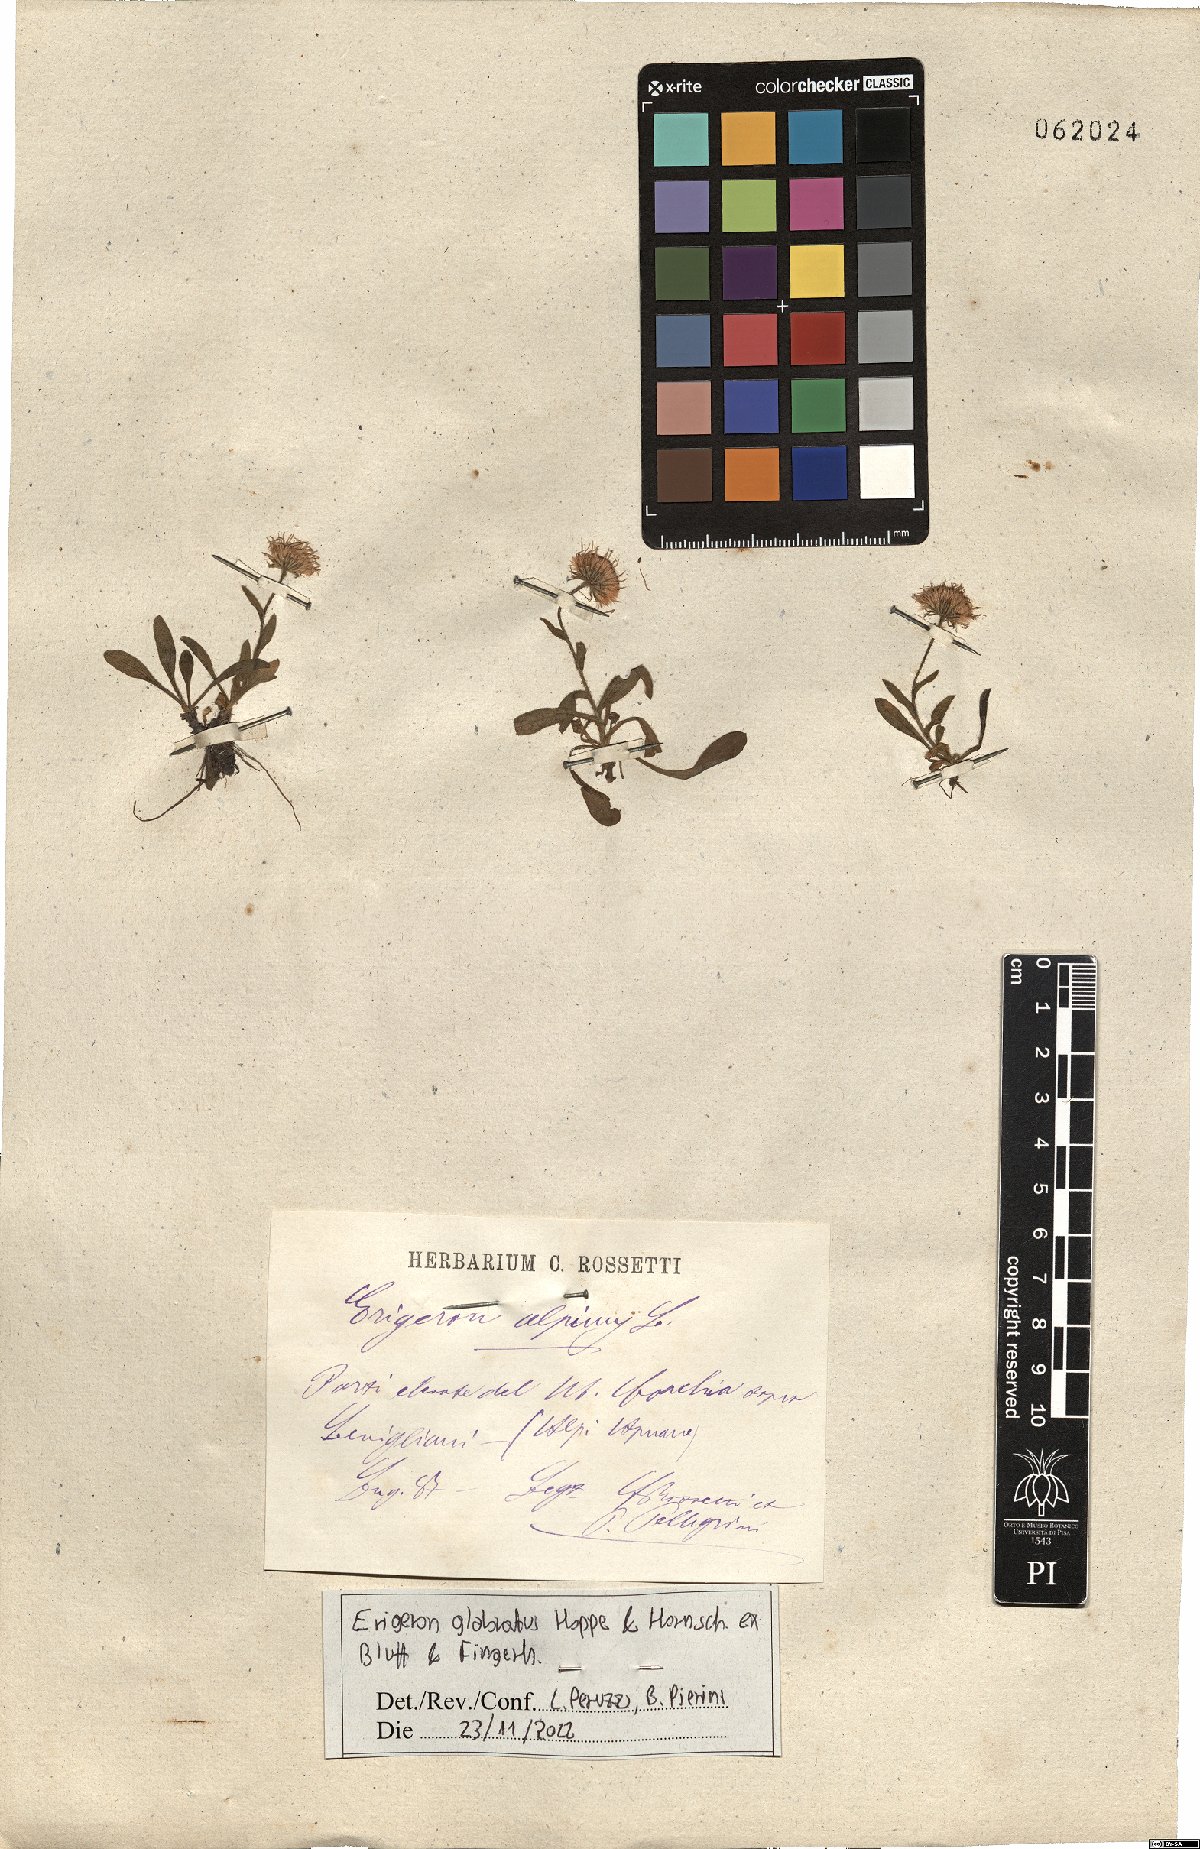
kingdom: Plantae
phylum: Tracheophyta
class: Magnoliopsida
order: Asterales
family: Asteraceae
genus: Erigeron
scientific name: Erigeron glabratus
